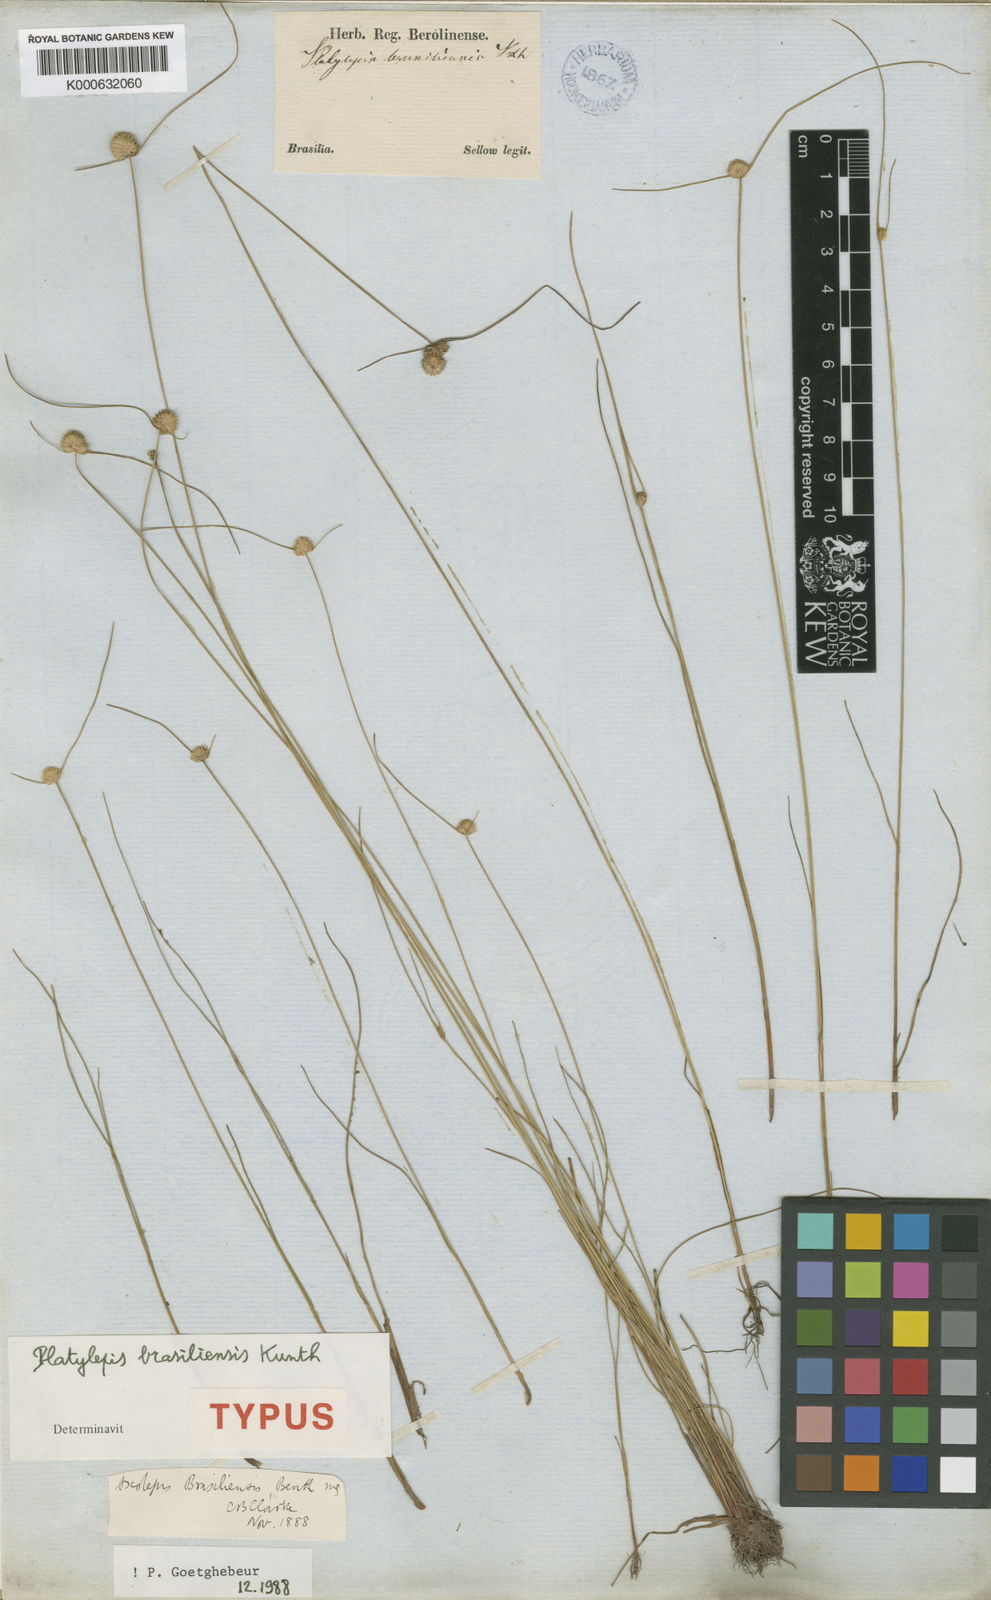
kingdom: Plantae
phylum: Tracheophyta
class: Liliopsida
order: Poales
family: Cyperaceae
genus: Cyperus
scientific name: Cyperus brasiliensis
